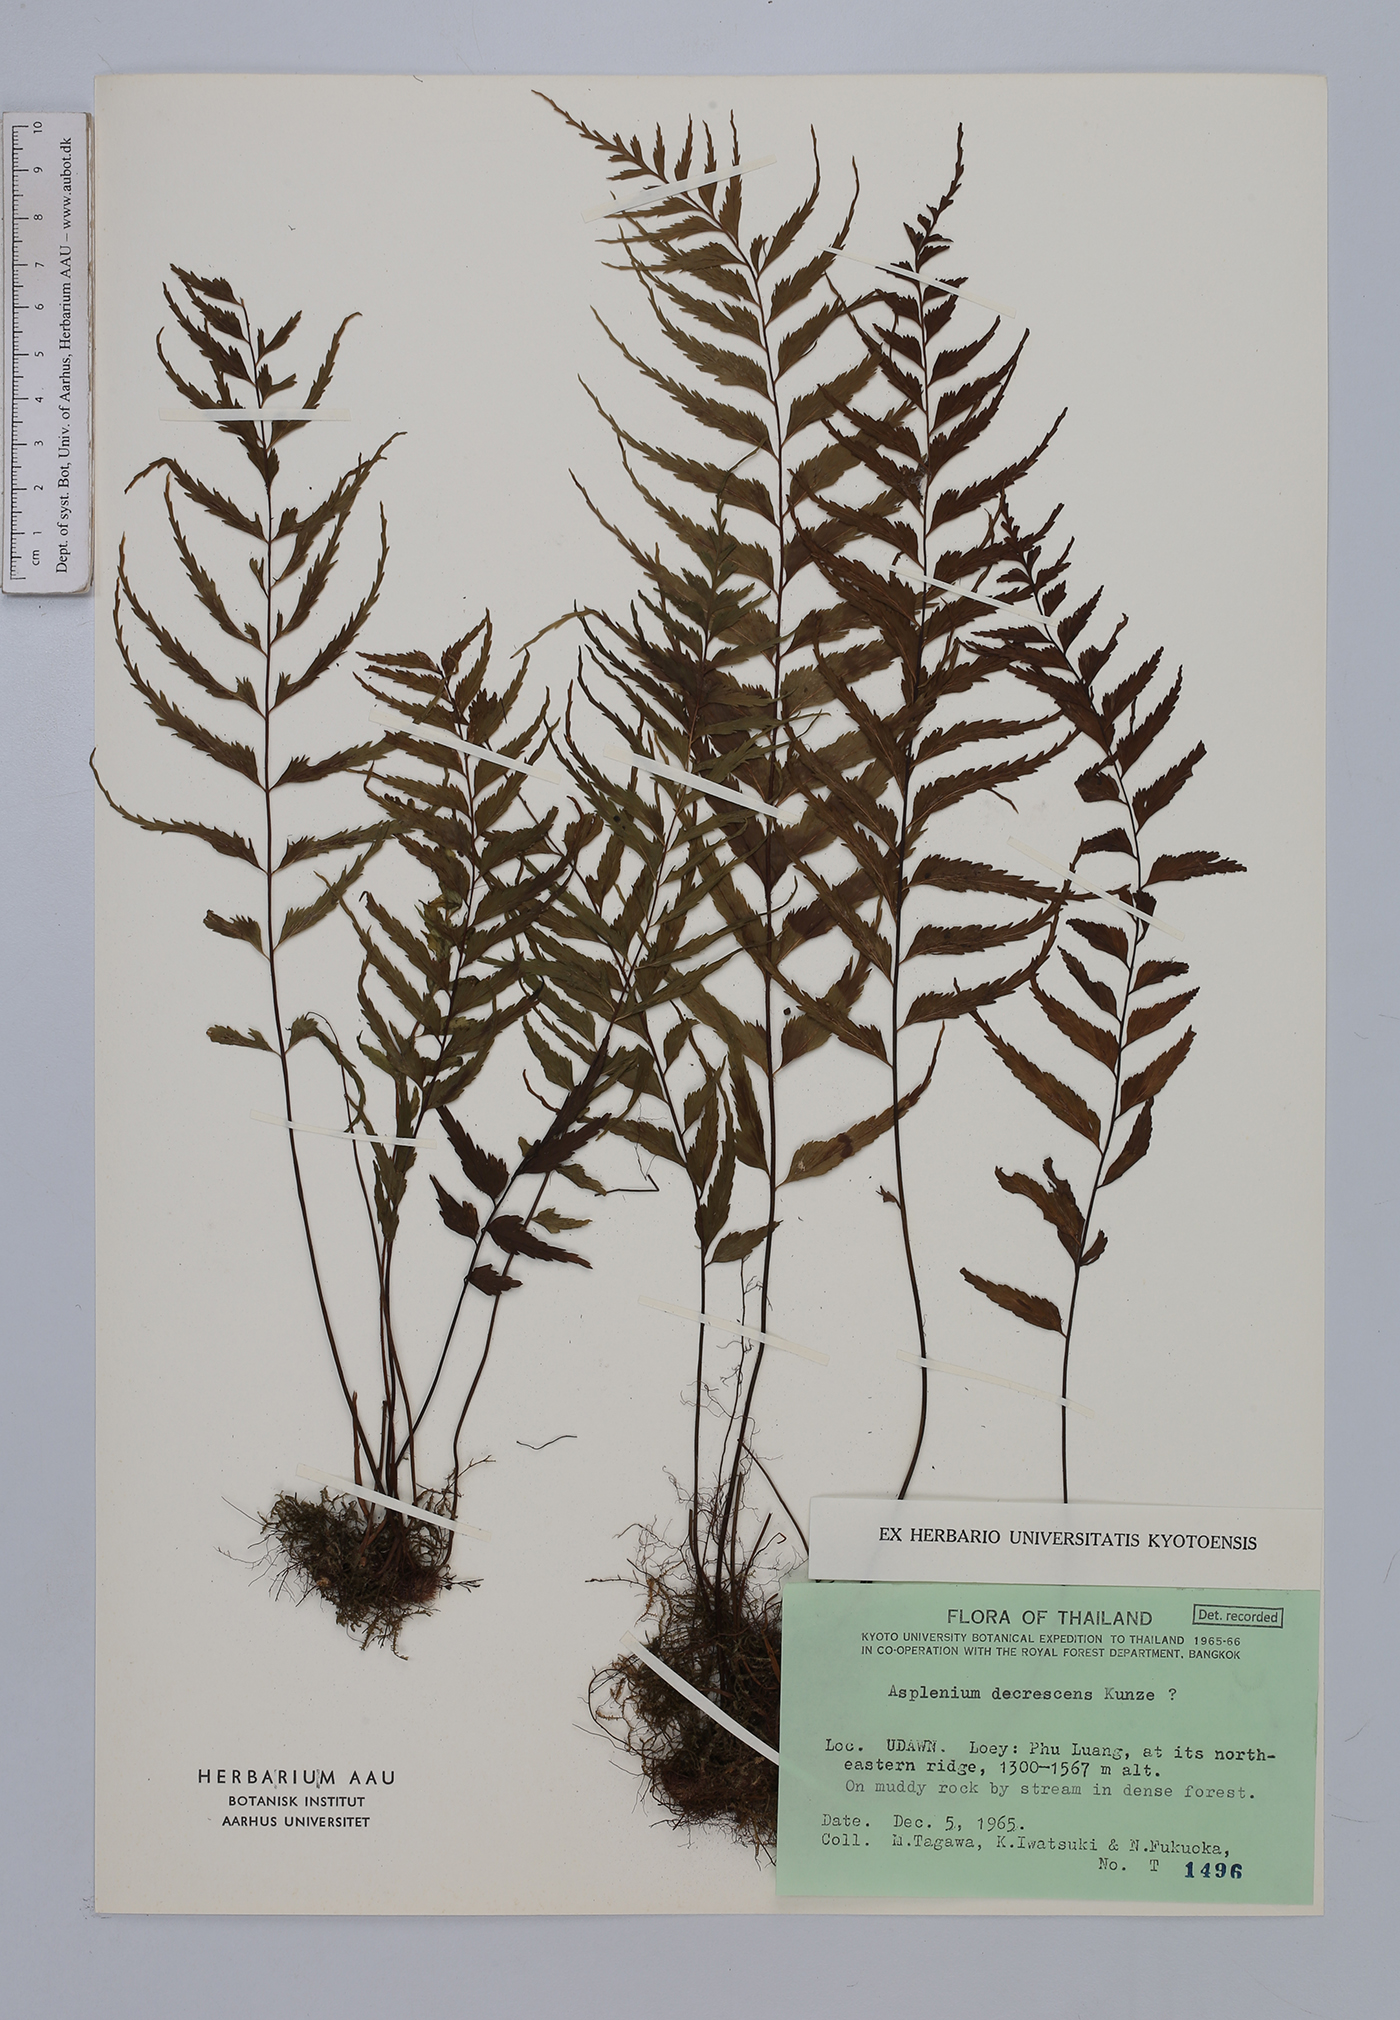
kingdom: Plantae
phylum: Tracheophyta
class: Polypodiopsida
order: Polypodiales
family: Aspleniaceae
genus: Asplenium
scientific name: Asplenium decrescens
